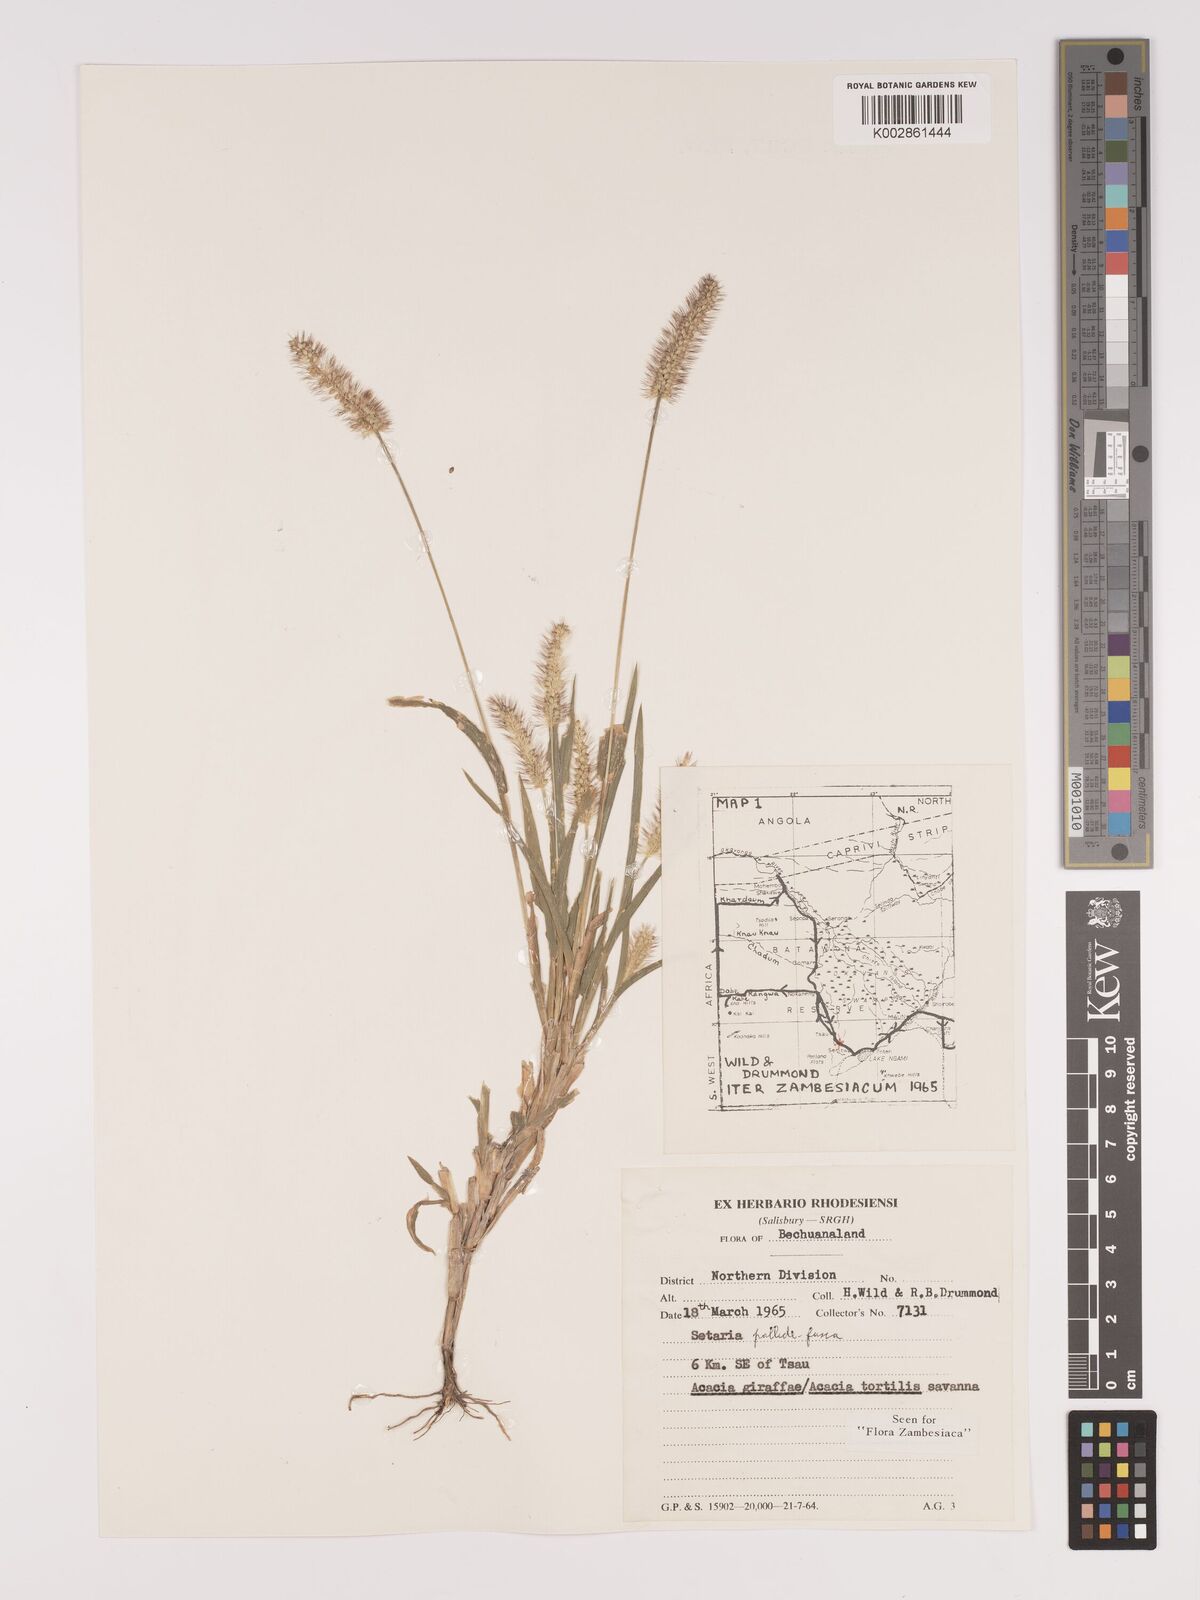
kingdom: Plantae
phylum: Tracheophyta
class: Liliopsida
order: Poales
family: Poaceae
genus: Setaria
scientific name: Setaria pumila
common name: Yellow bristle-grass
